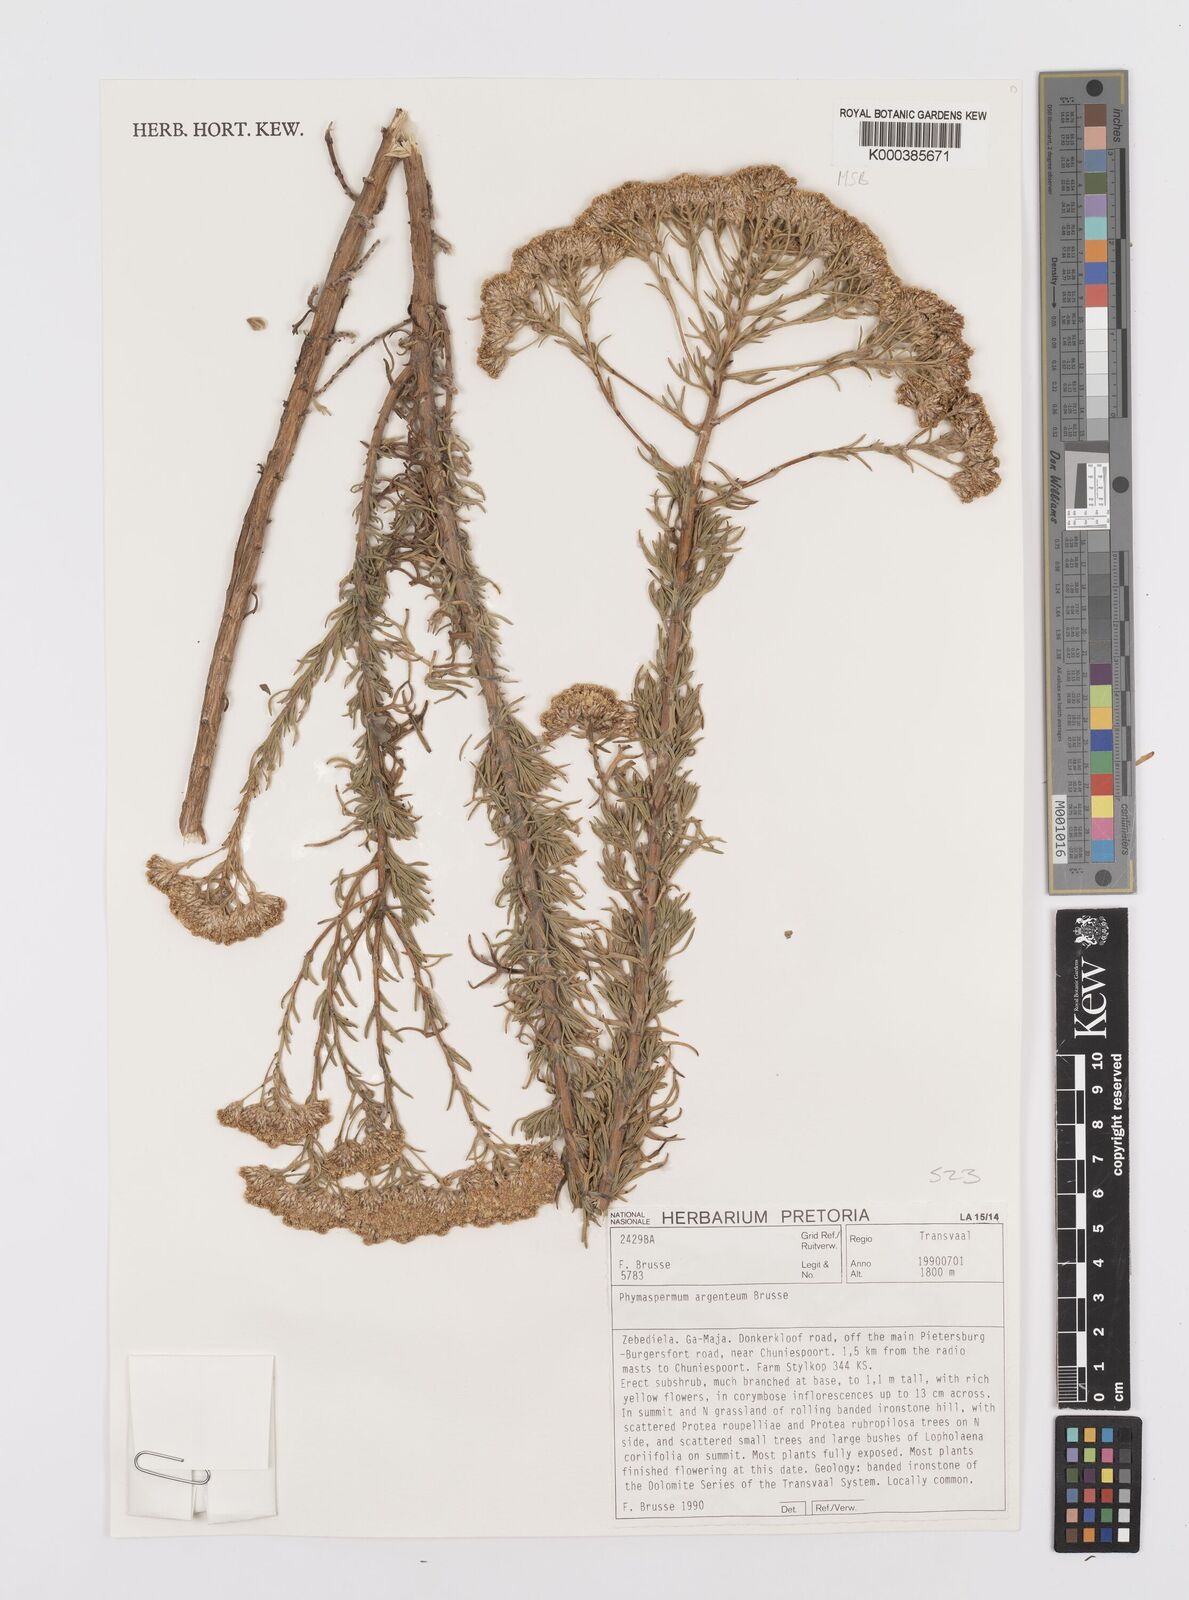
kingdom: Plantae
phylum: Tracheophyta
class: Magnoliopsida
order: Asterales
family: Asteraceae
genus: Phymaspermum
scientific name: Phymaspermum argenteum
